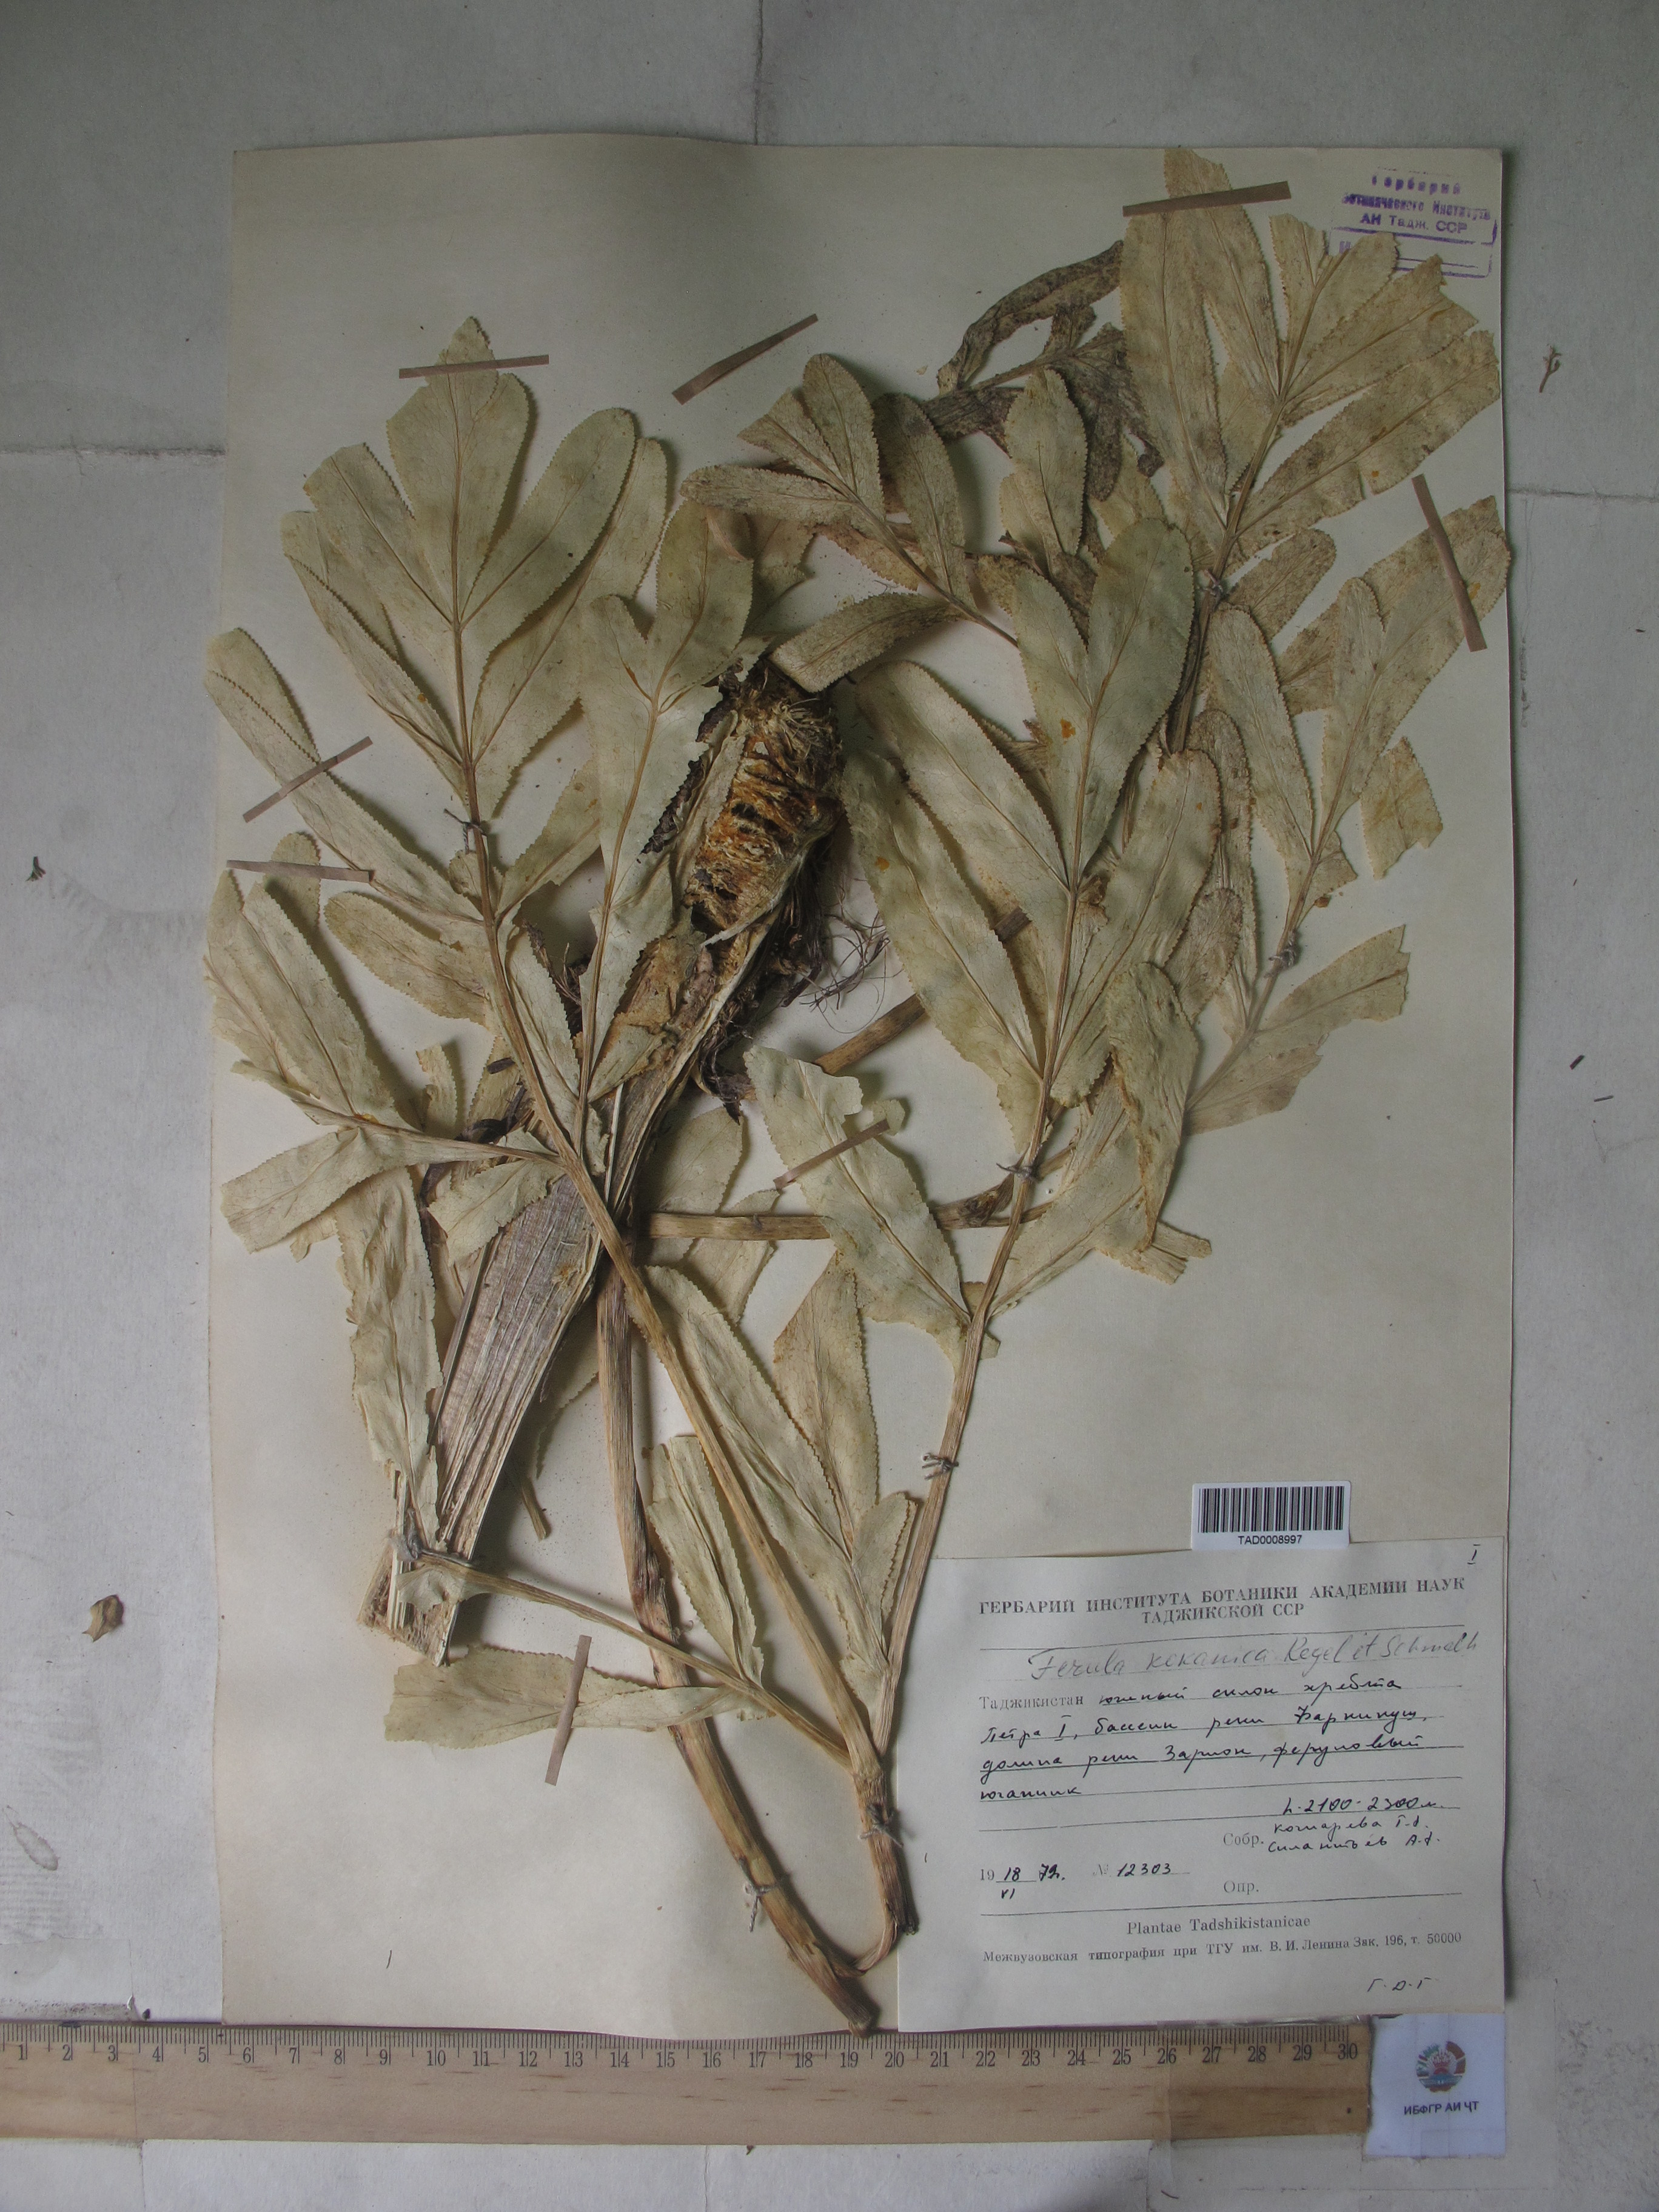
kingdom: Plantae
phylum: Tracheophyta
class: Magnoliopsida
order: Apiales
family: Apiaceae
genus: Ferula
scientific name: Ferula kokanica
